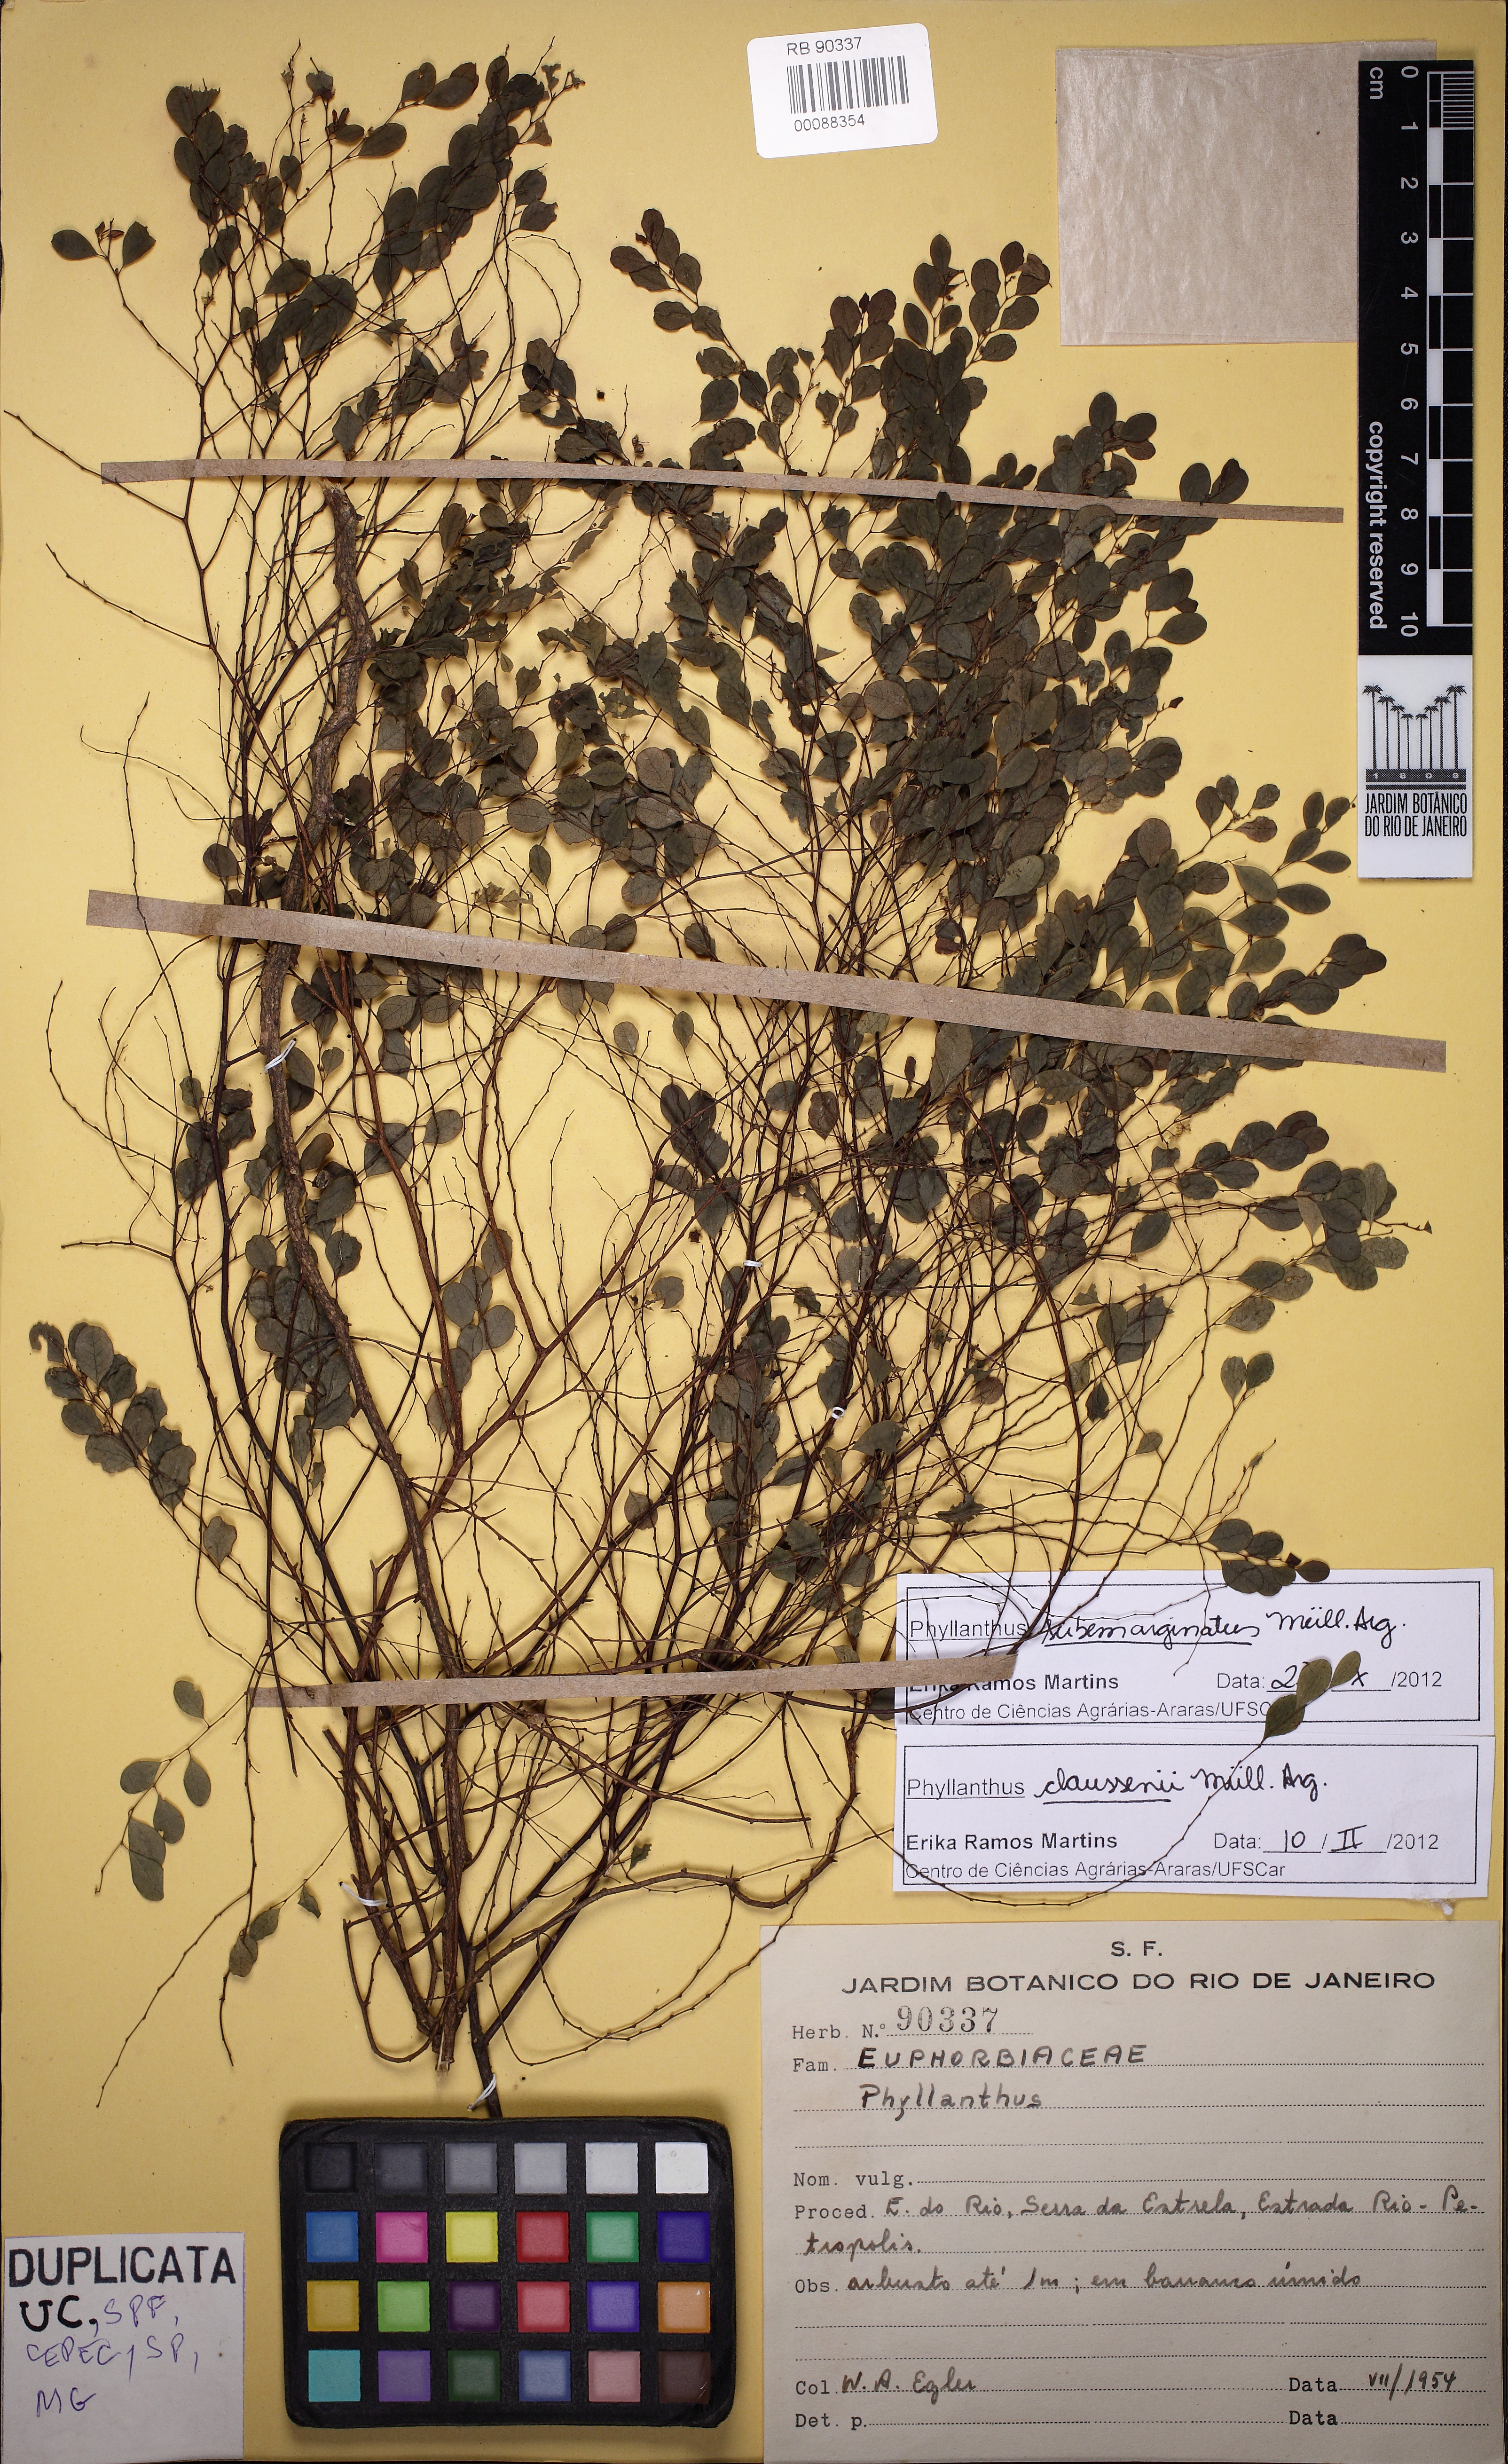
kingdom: Plantae
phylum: Tracheophyta
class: Magnoliopsida
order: Malpighiales
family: Phyllanthaceae
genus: Phyllanthus
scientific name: Phyllanthus subemarginatus
